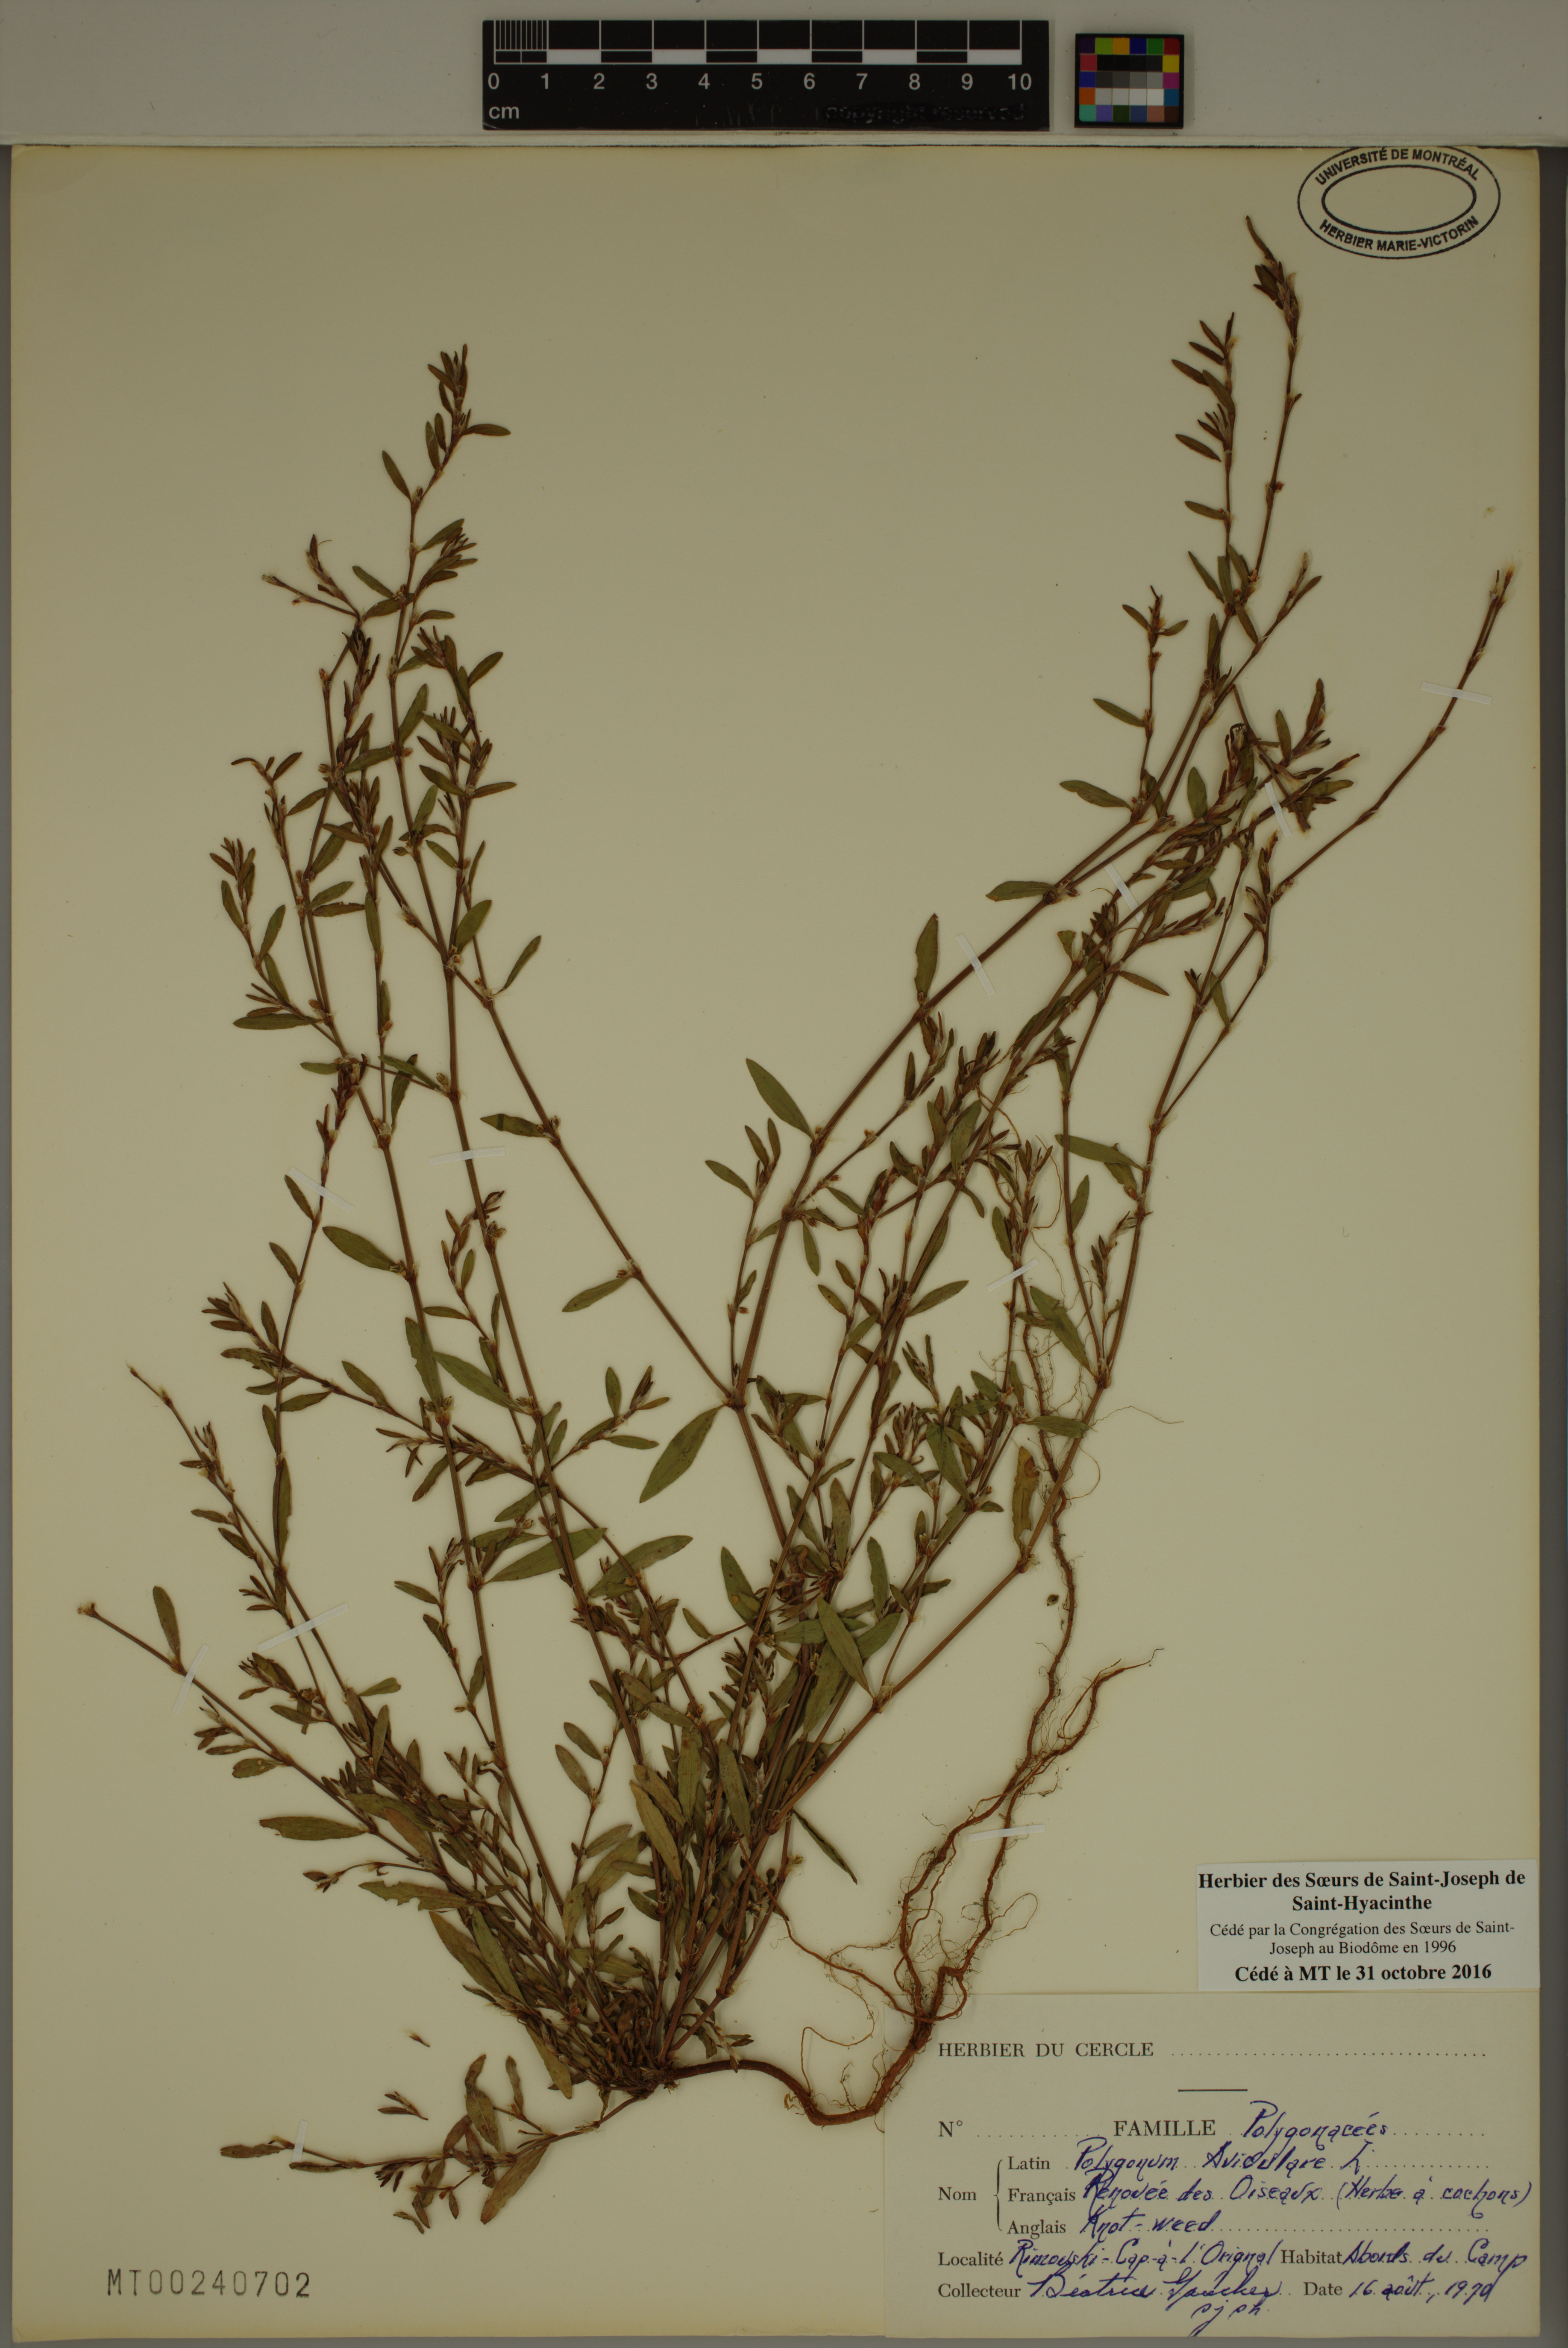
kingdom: Plantae
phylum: Tracheophyta
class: Magnoliopsida
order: Caryophyllales
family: Polygonaceae
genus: Polygonum
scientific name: Polygonum aviculare
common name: Prostrate knotweed
